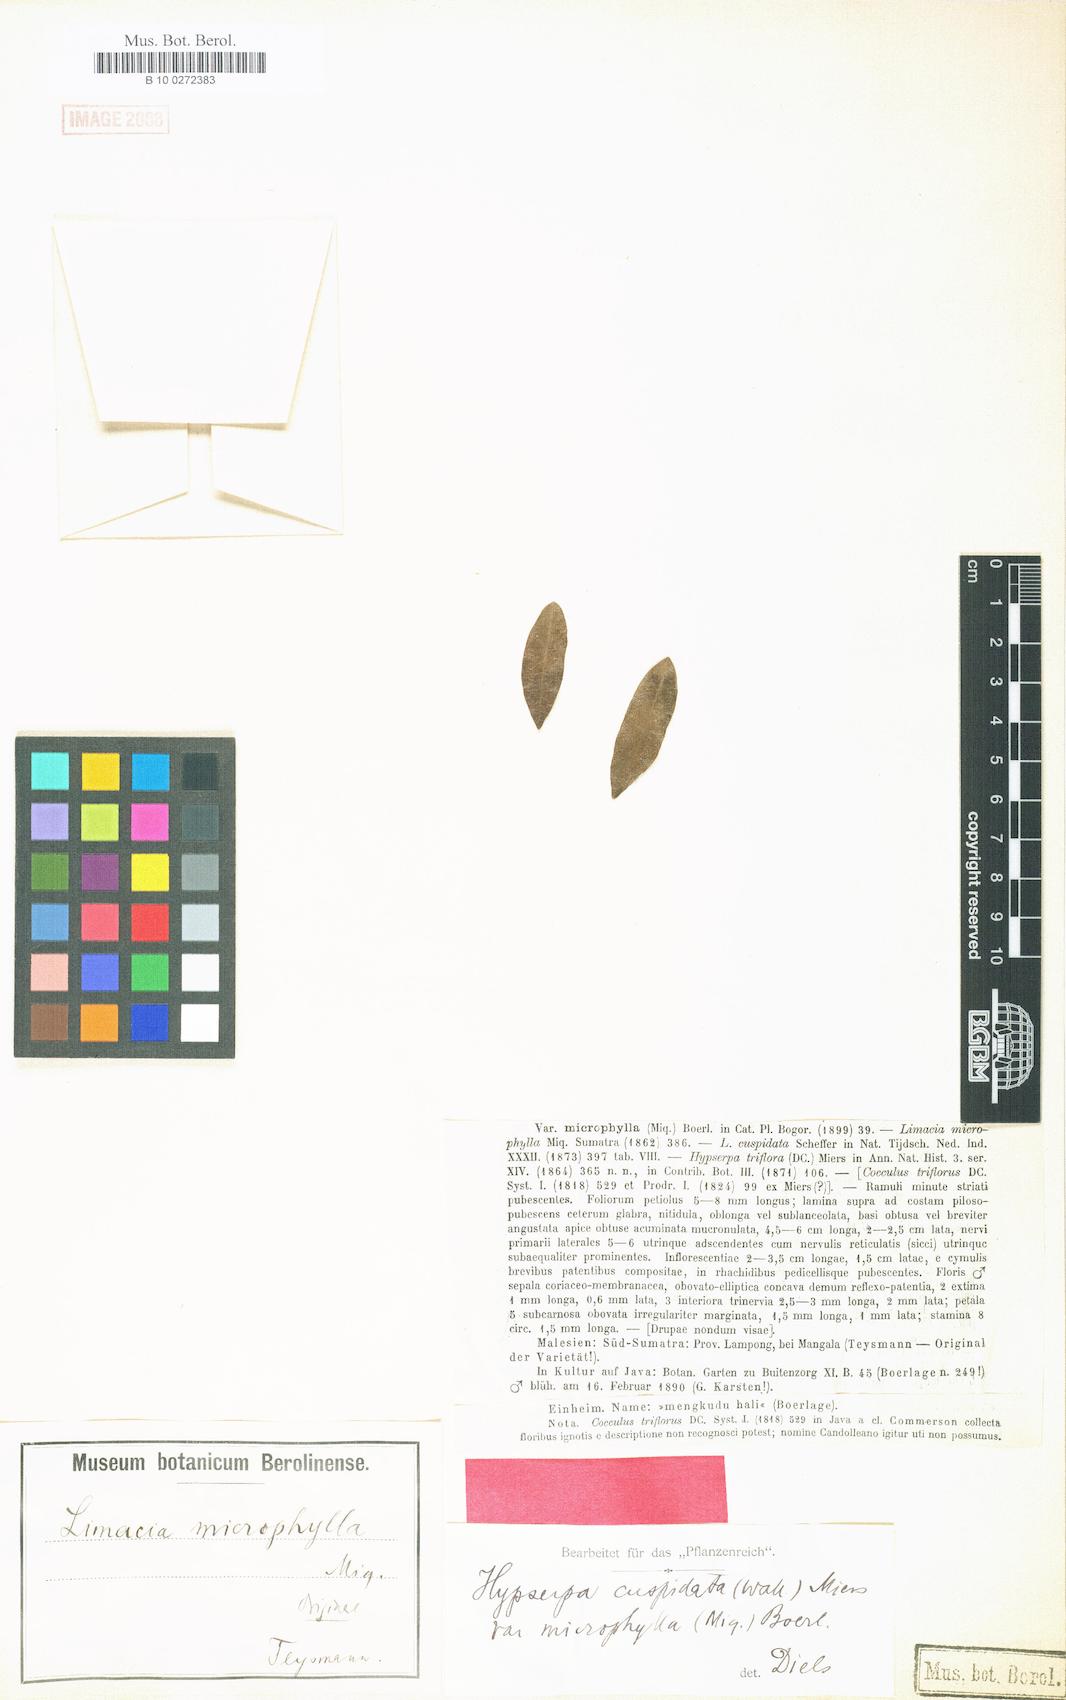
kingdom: Plantae
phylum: Tracheophyta
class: Magnoliopsida
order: Ranunculales
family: Menispermaceae
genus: Hypserpa
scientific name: Hypserpa nitida
